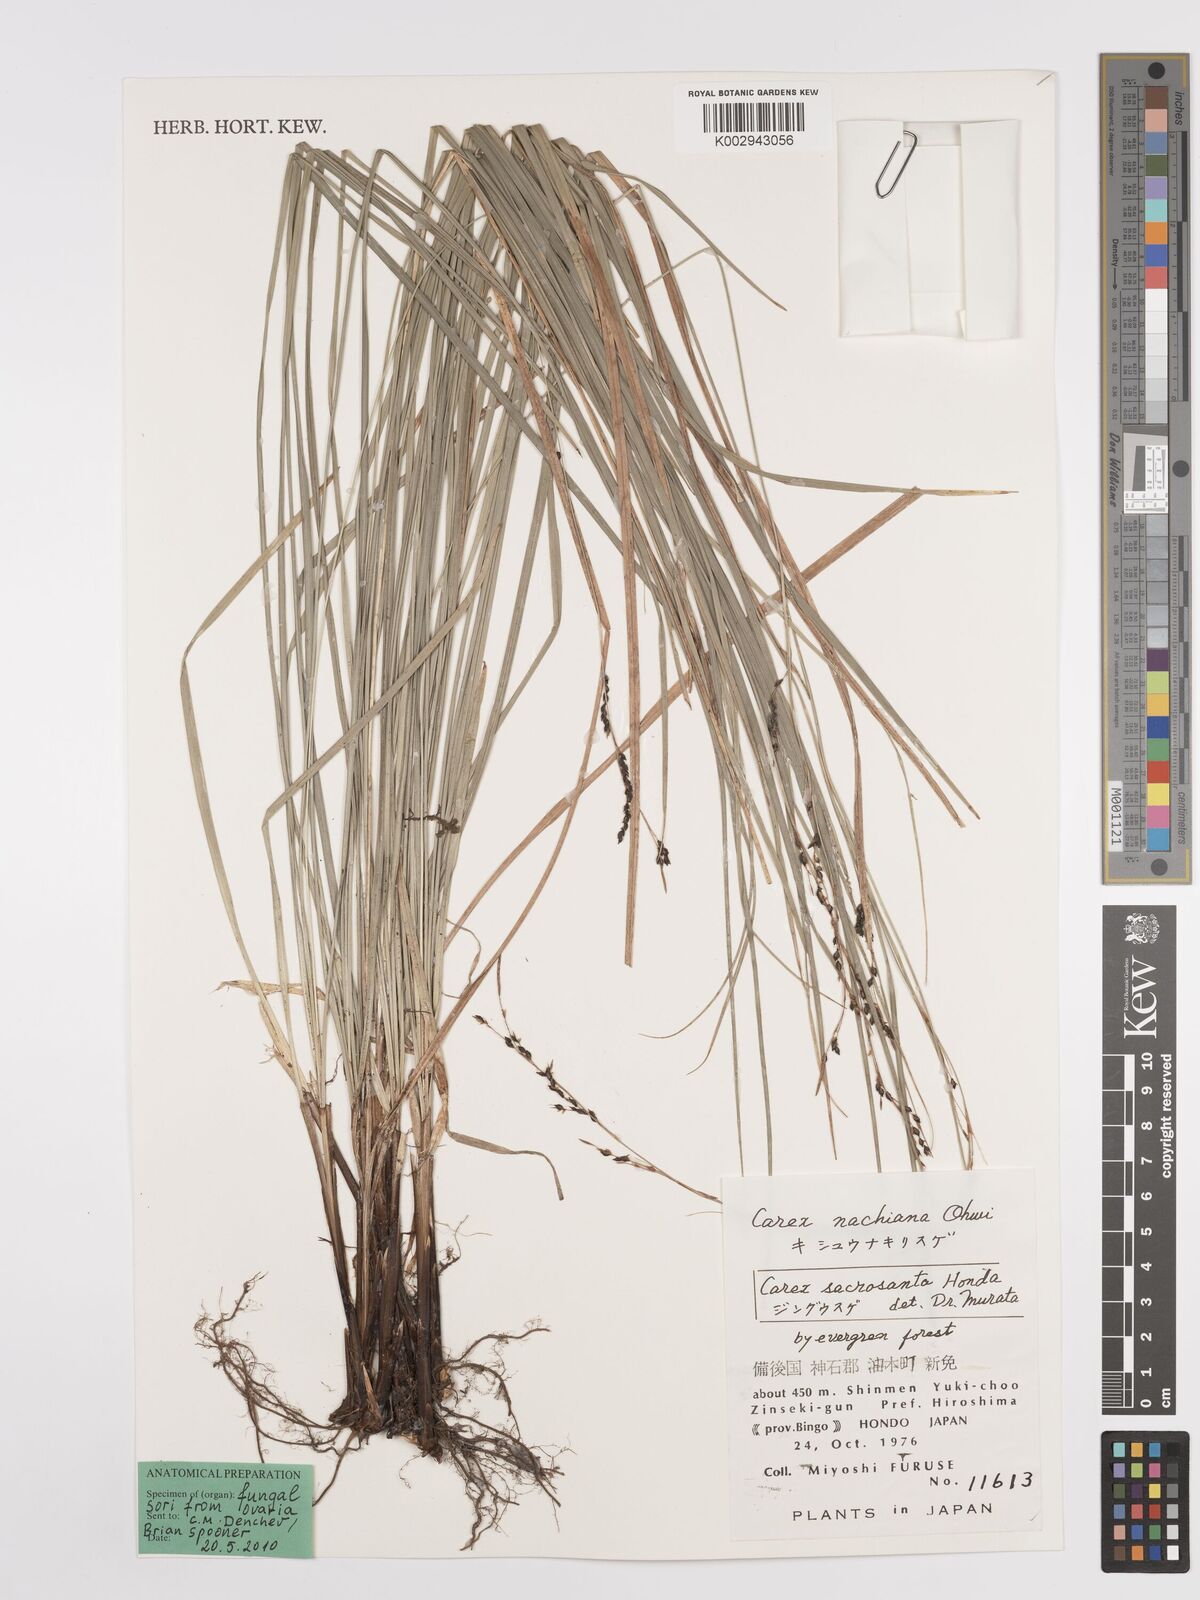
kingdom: Plantae
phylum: Tracheophyta
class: Liliopsida
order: Poales
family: Cyperaceae
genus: Carex
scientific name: Carex sacrosancta
